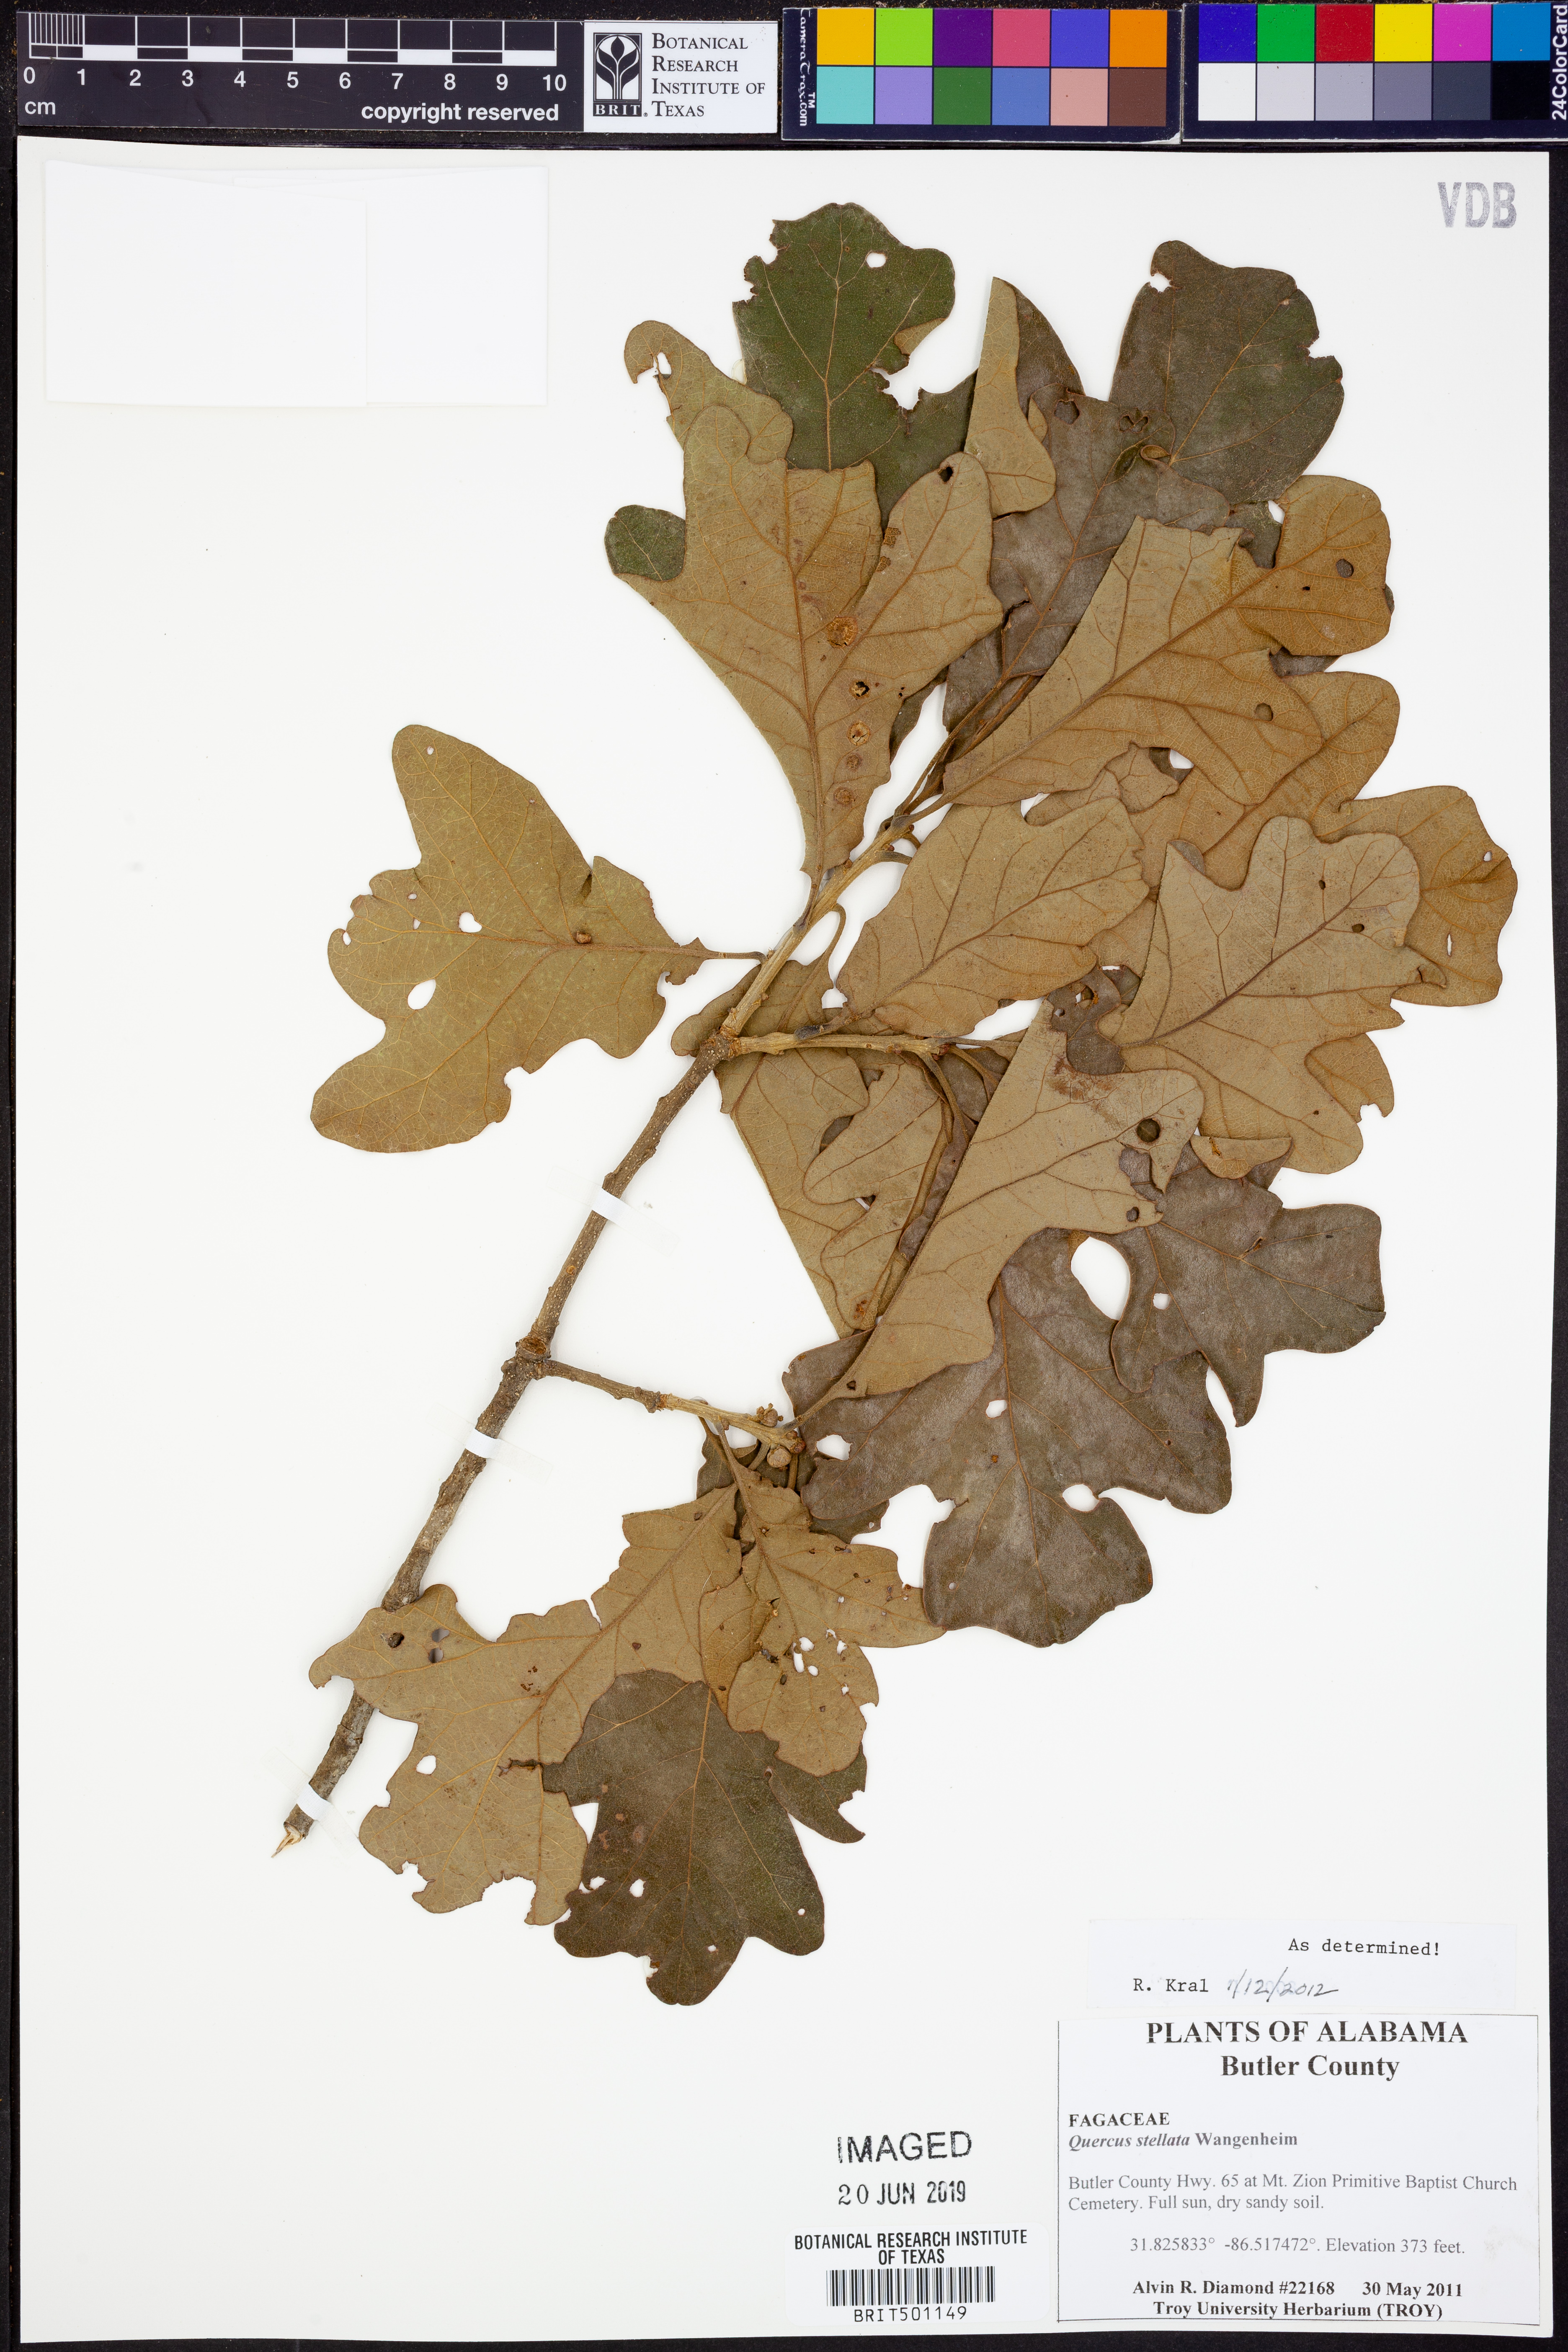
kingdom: Plantae
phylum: Tracheophyta
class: Magnoliopsida
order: Fagales
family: Fagaceae
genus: Quercus
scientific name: Quercus stellata
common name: Post oak
